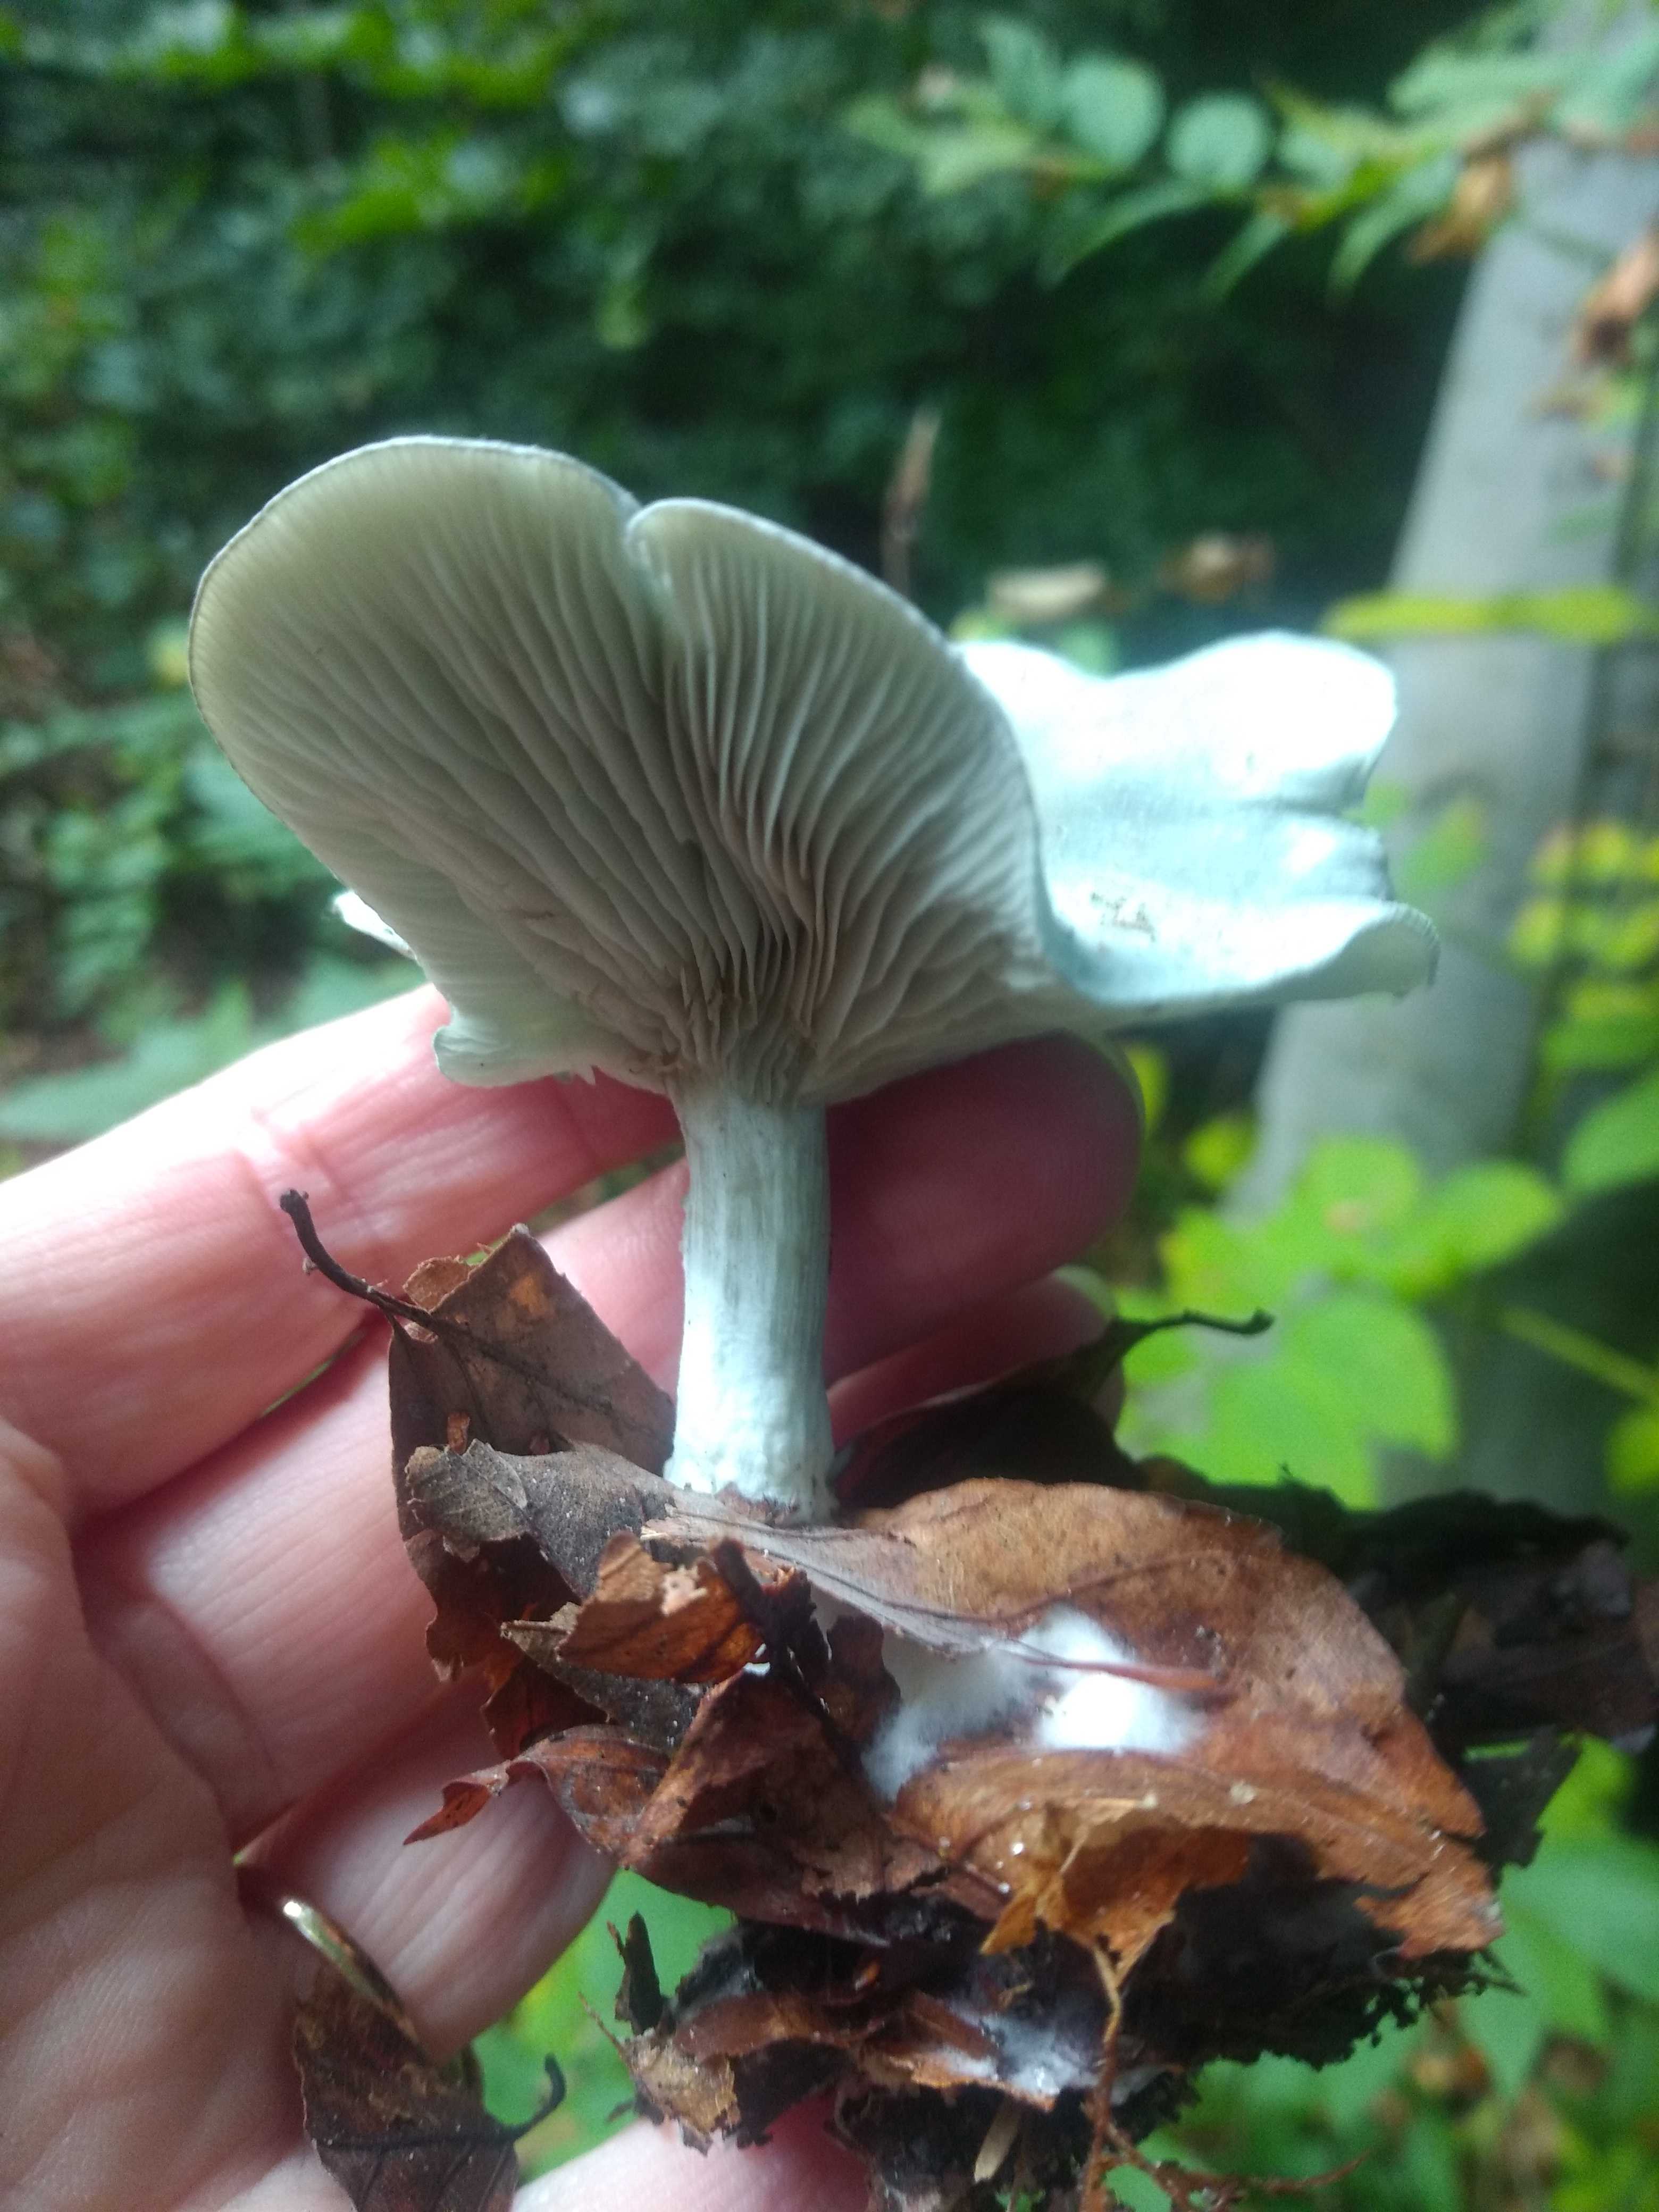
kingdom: Fungi
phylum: Basidiomycota
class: Agaricomycetes
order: Agaricales
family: Tricholomataceae
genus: Clitocybe
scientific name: Clitocybe odora
